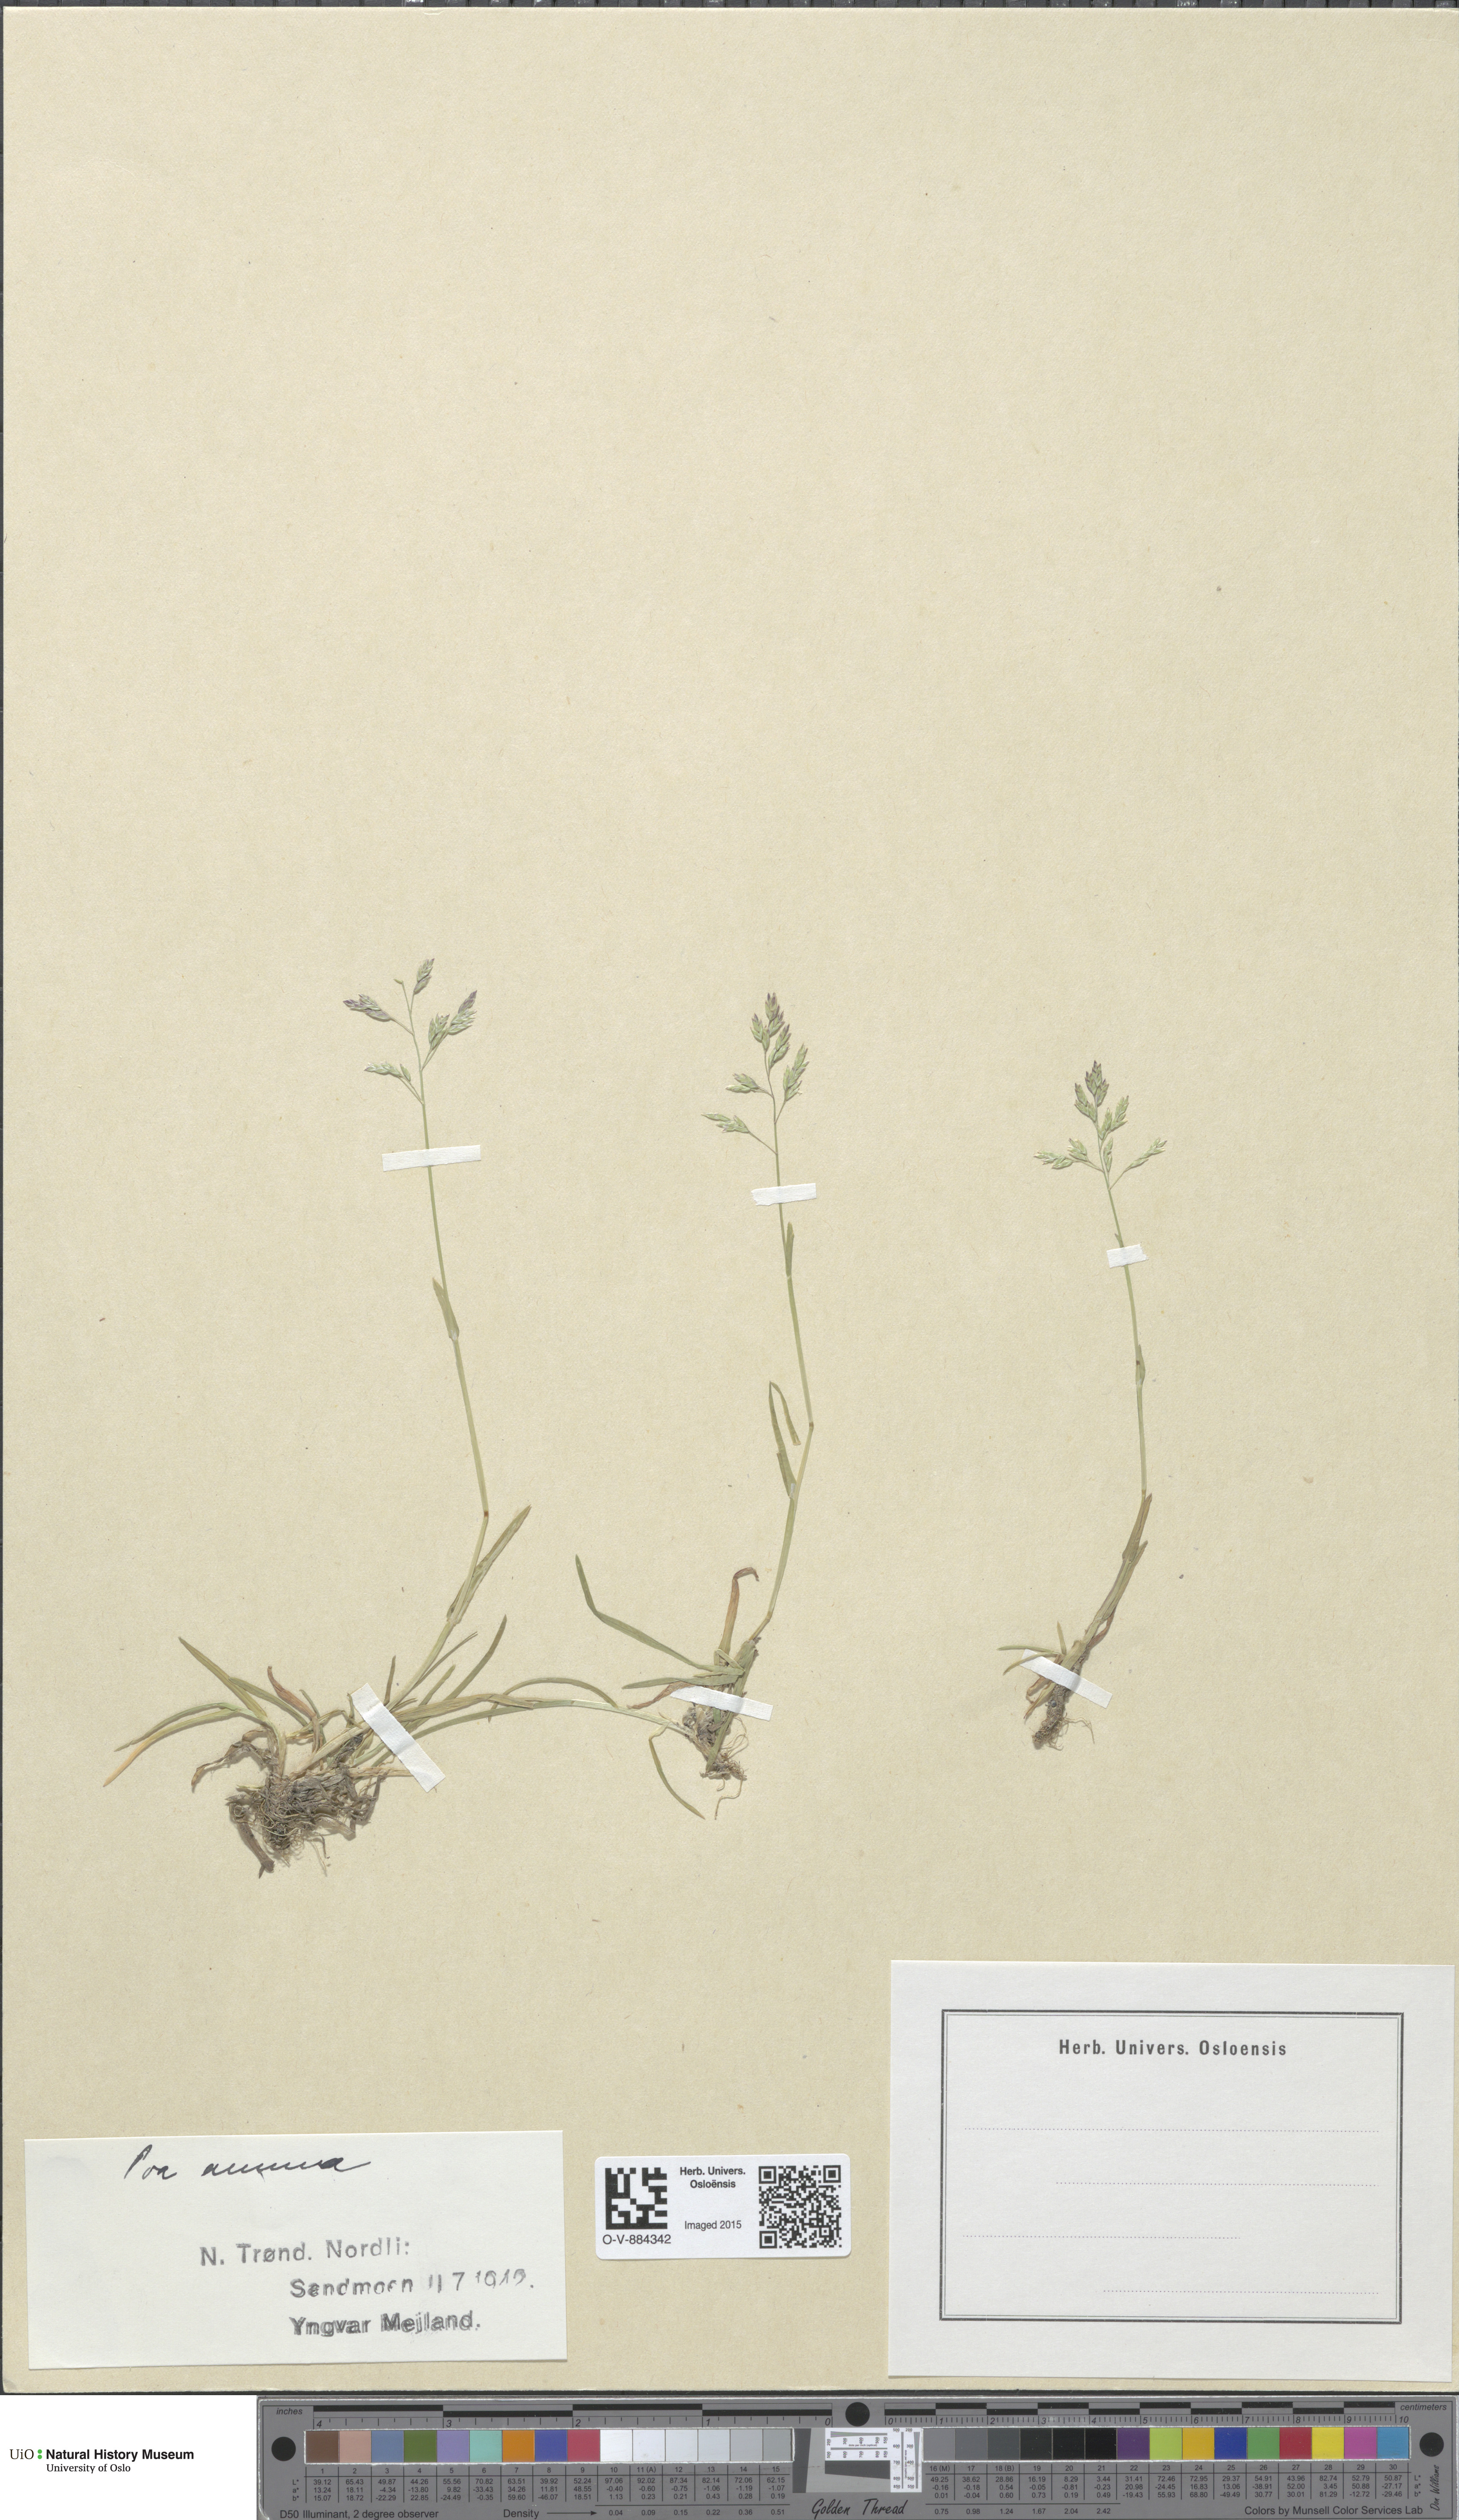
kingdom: Plantae
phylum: Tracheophyta
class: Liliopsida
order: Poales
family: Poaceae
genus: Poa
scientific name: Poa annua
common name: Annual bluegrass
